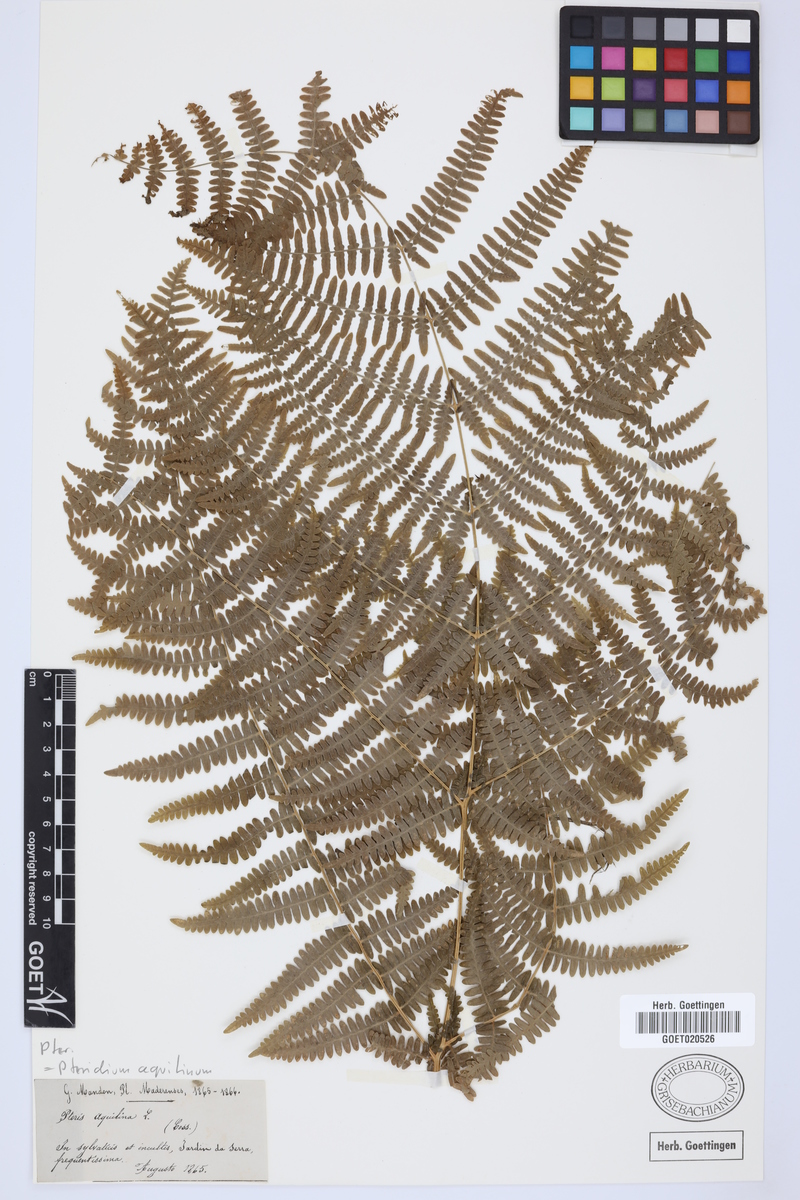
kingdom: Plantae
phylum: Tracheophyta
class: Polypodiopsida
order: Polypodiales
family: Dennstaedtiaceae
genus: Pteridium
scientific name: Pteridium aquilinum
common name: Bracken
